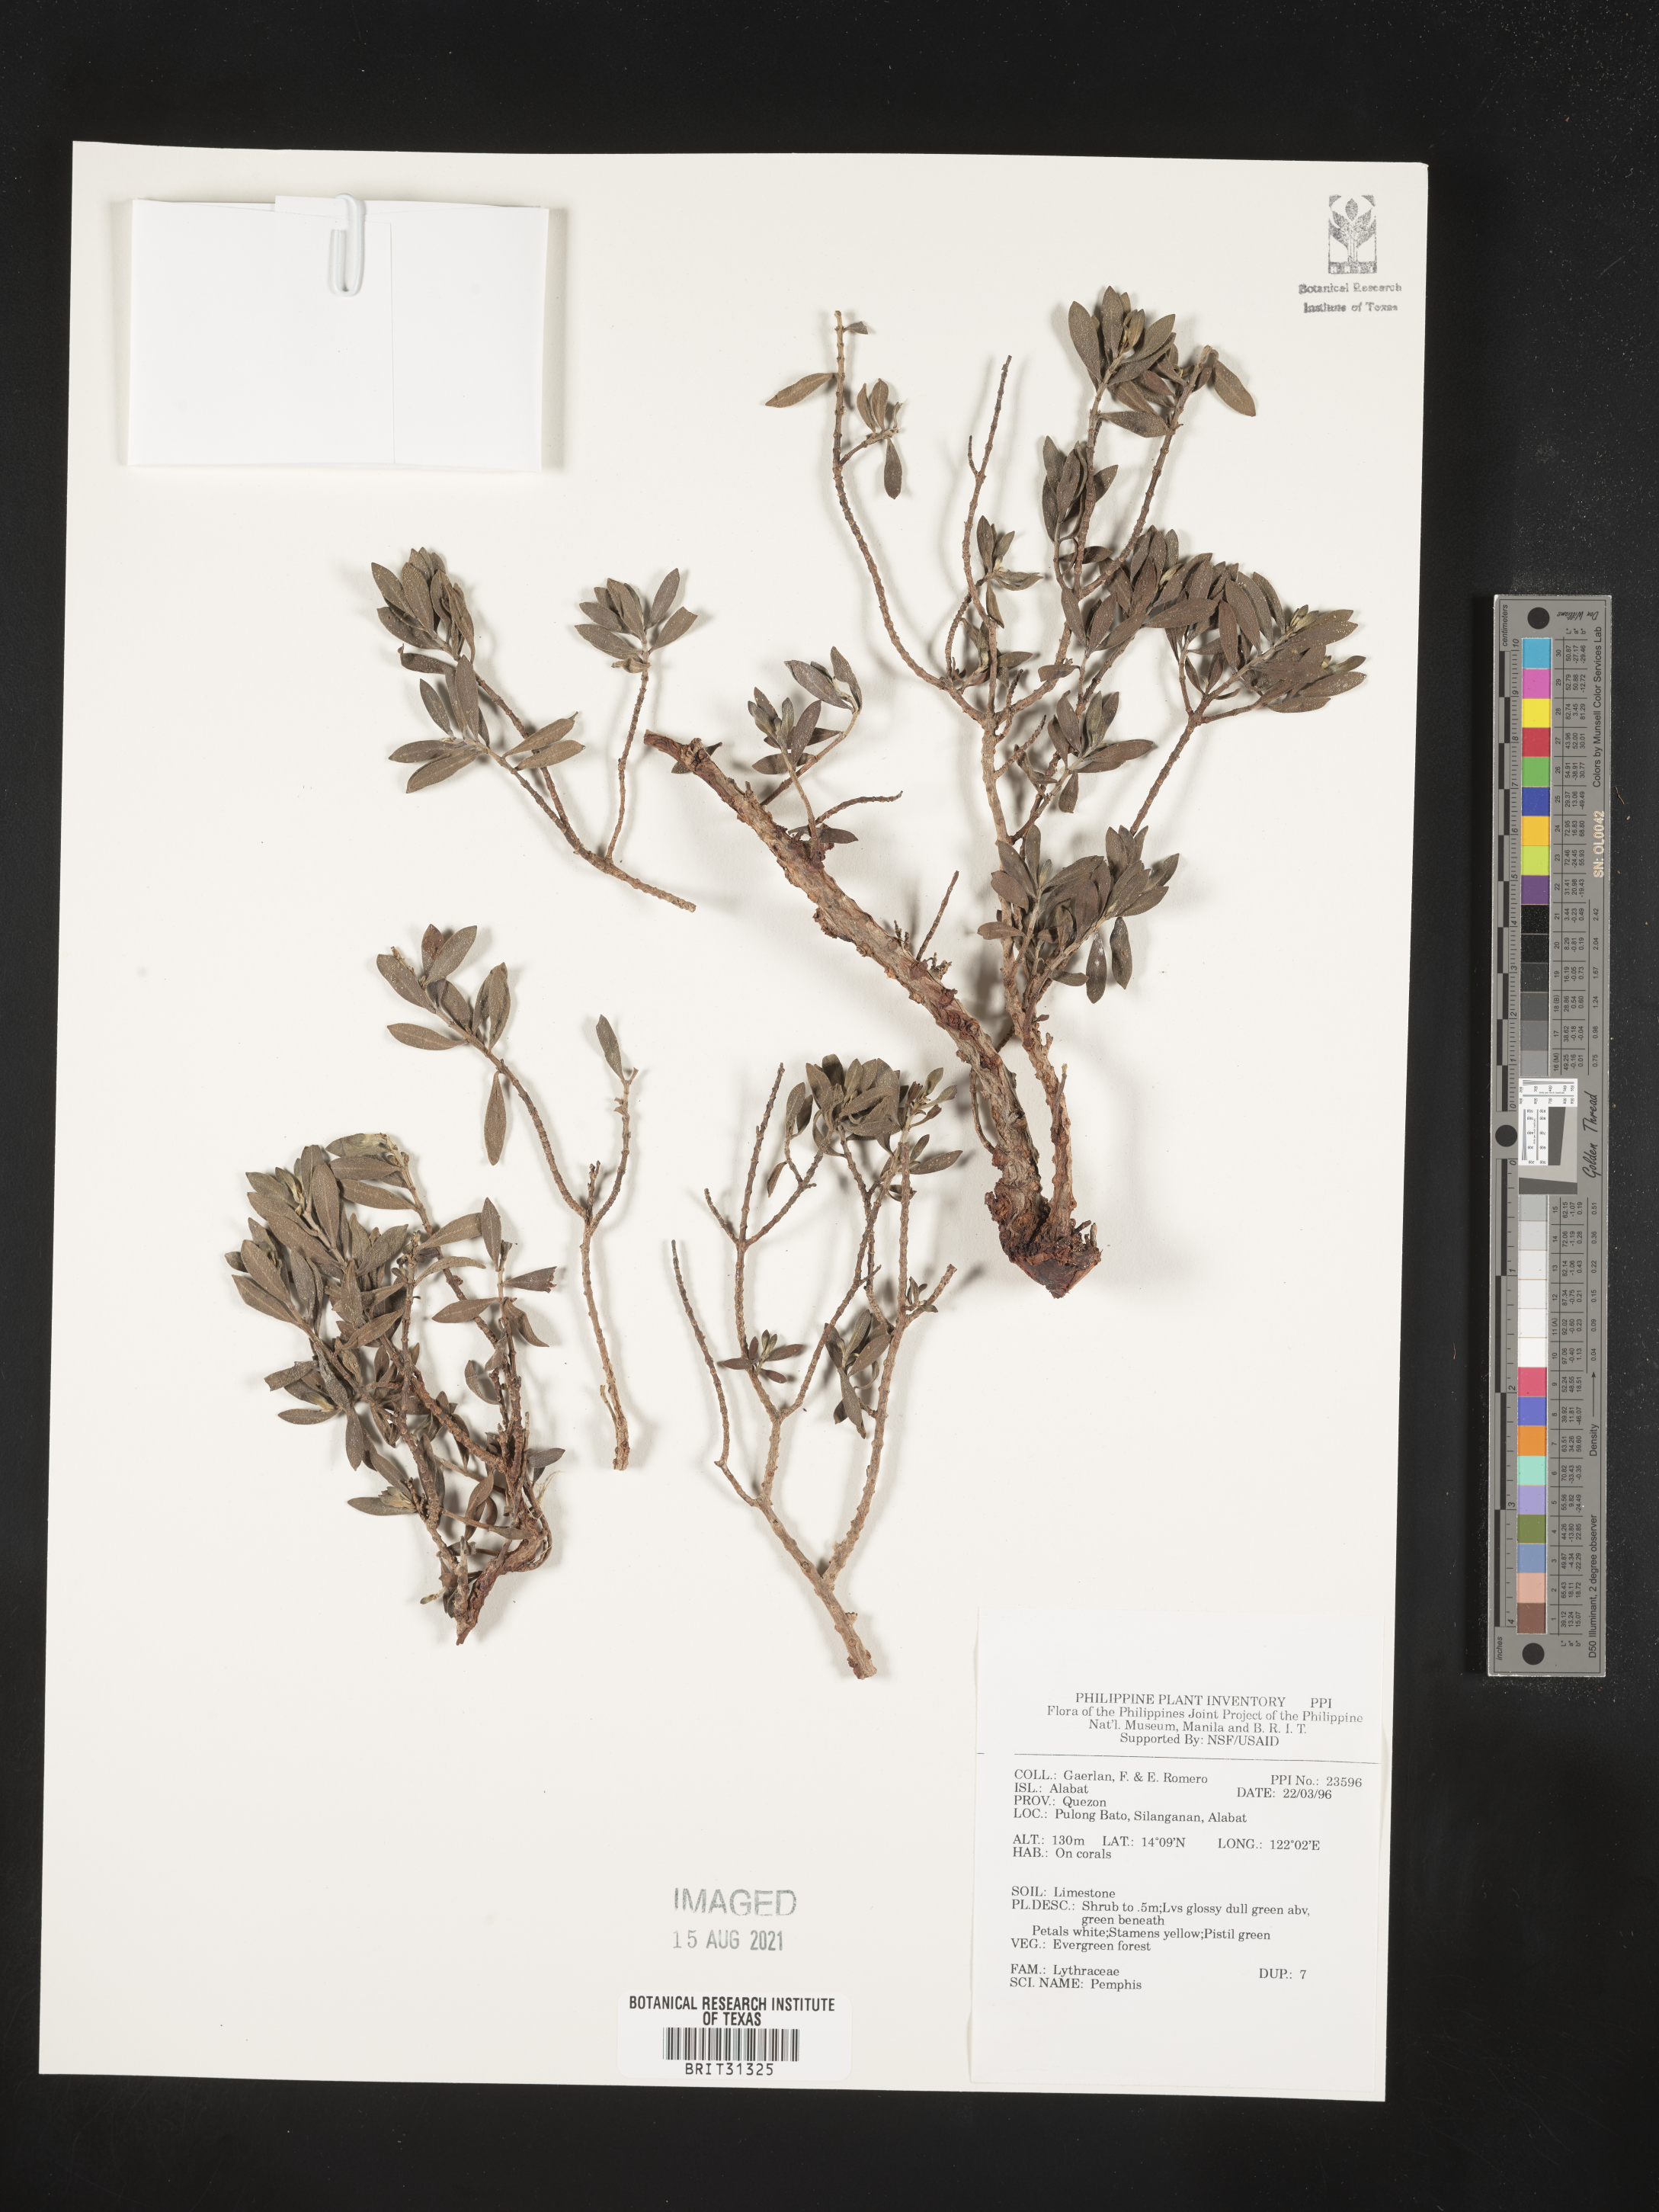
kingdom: Plantae
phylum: Tracheophyta
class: Magnoliopsida
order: Myrtales
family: Lythraceae
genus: Pemphis
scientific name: Pemphis
